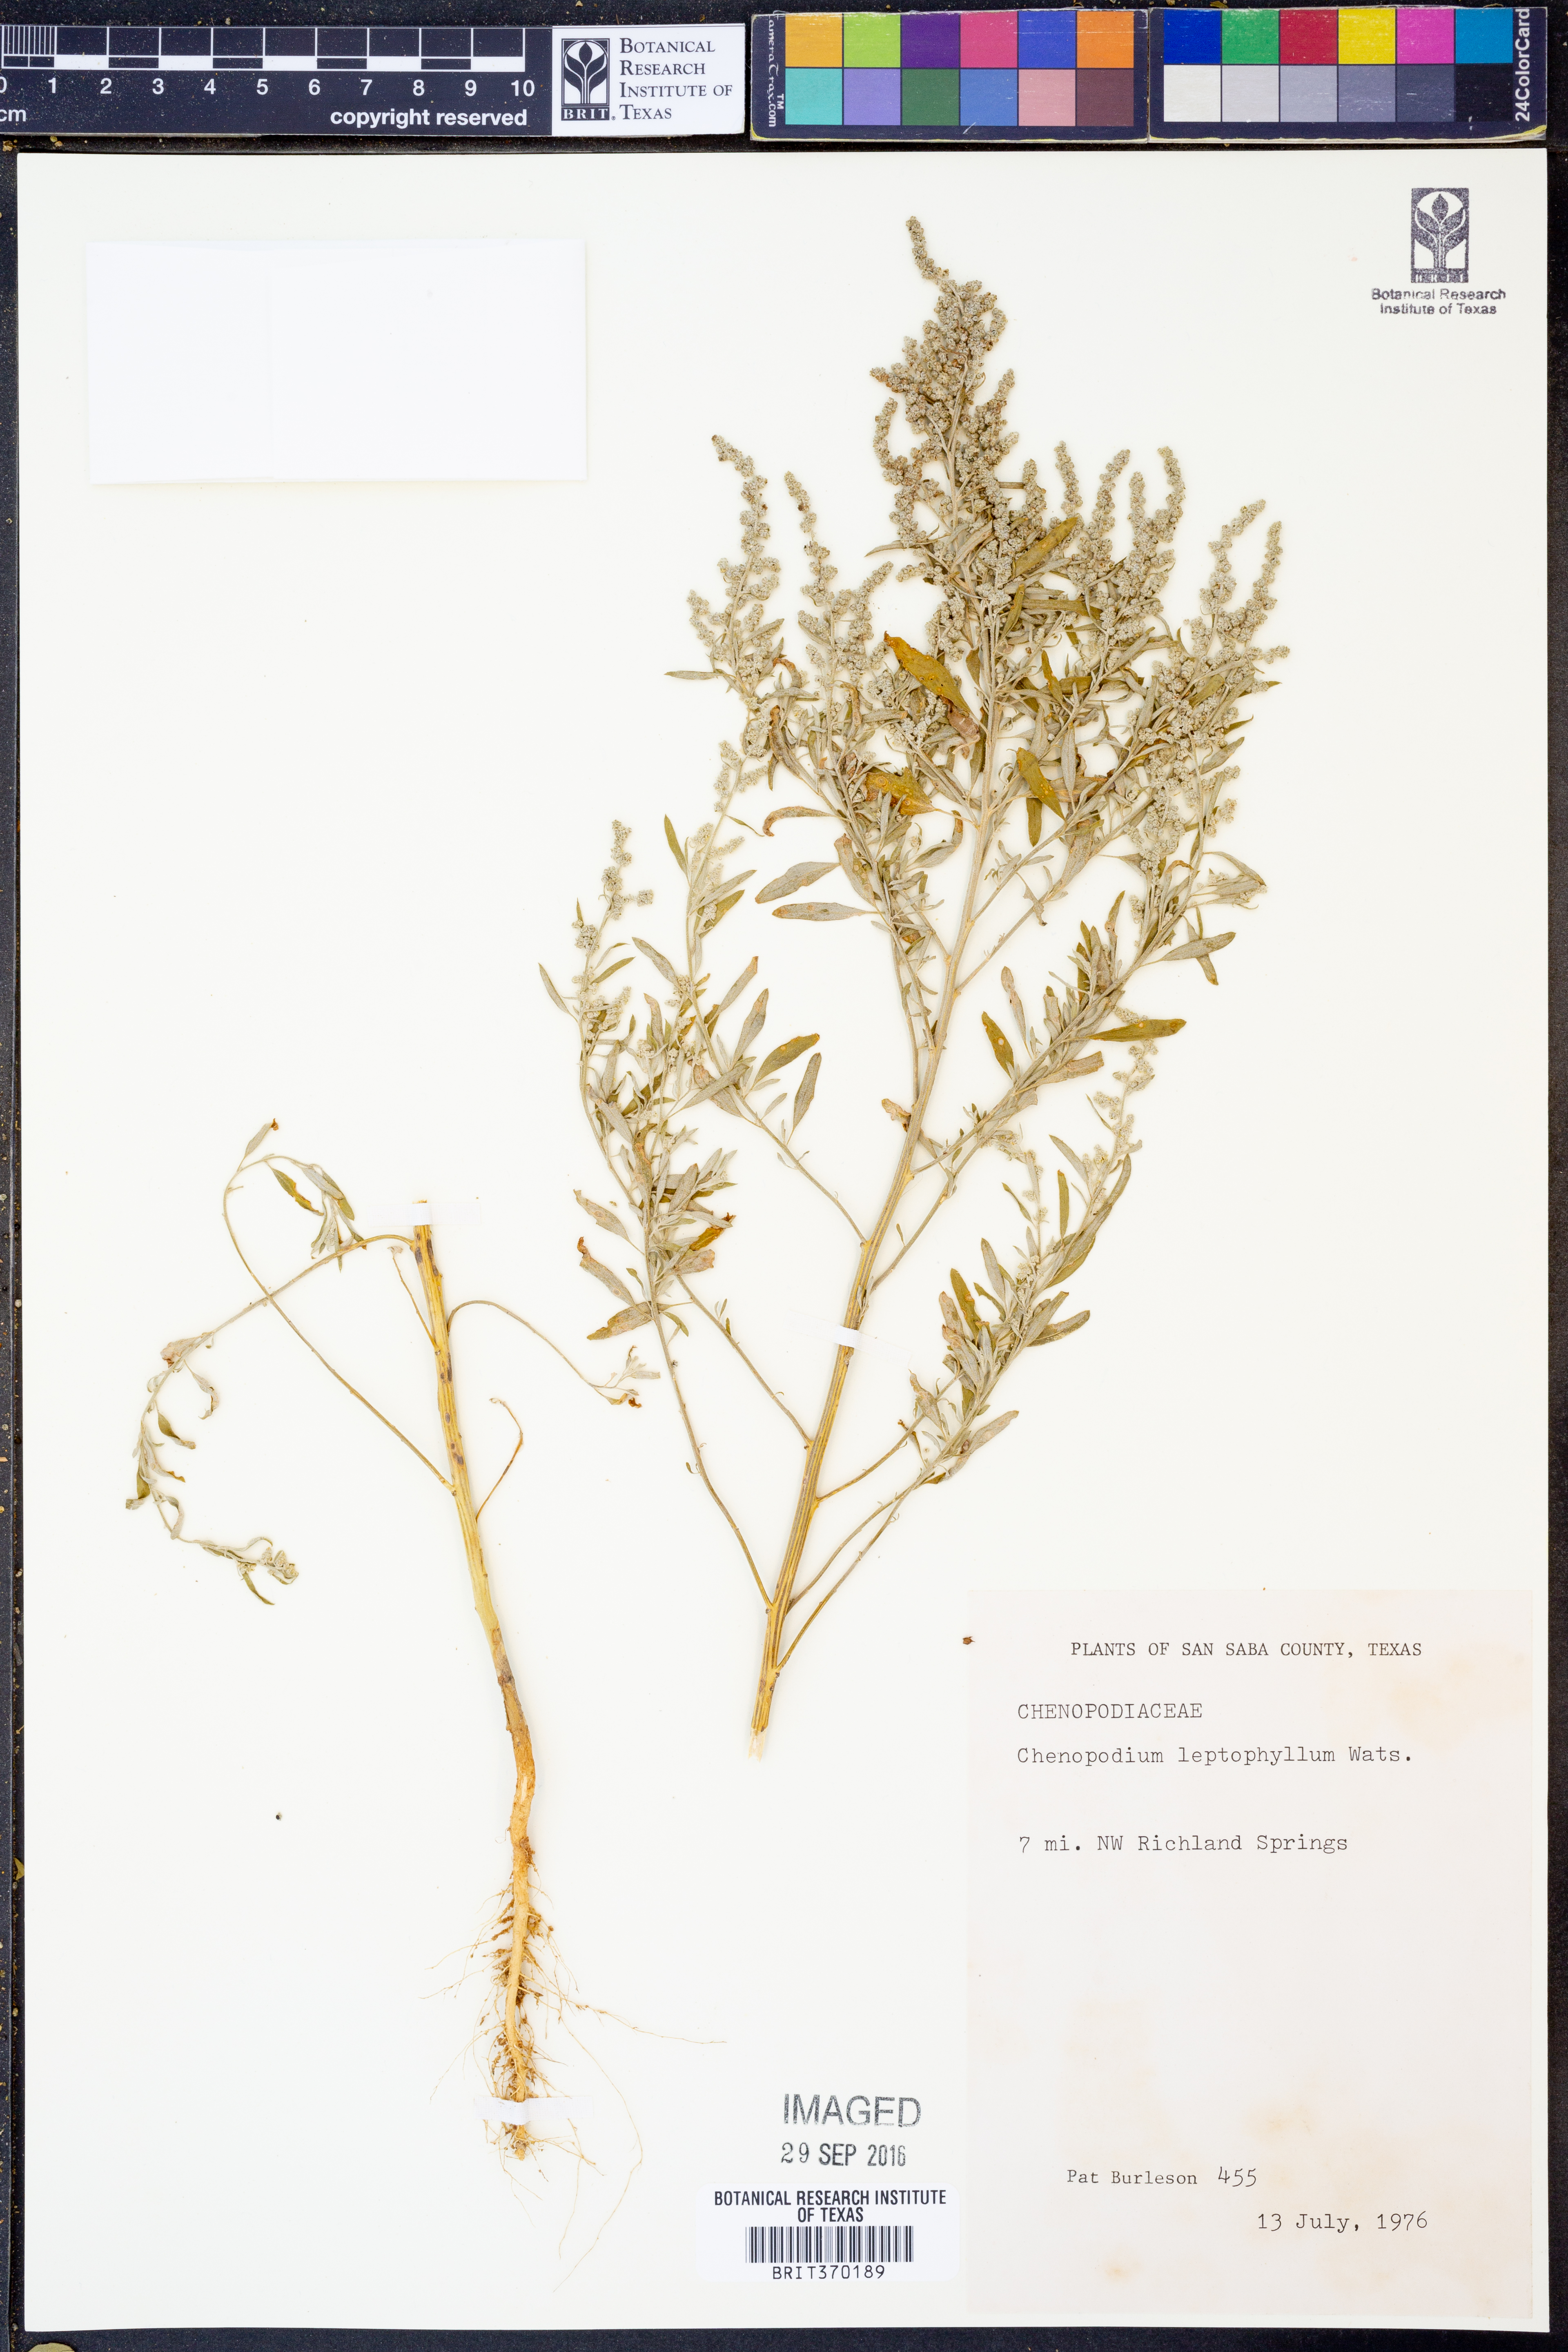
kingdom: Plantae
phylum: Tracheophyta
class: Magnoliopsida
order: Caryophyllales
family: Amaranthaceae
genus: Chenopodium
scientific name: Chenopodium leptophyllum
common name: Narrow-leaf goosefoot
